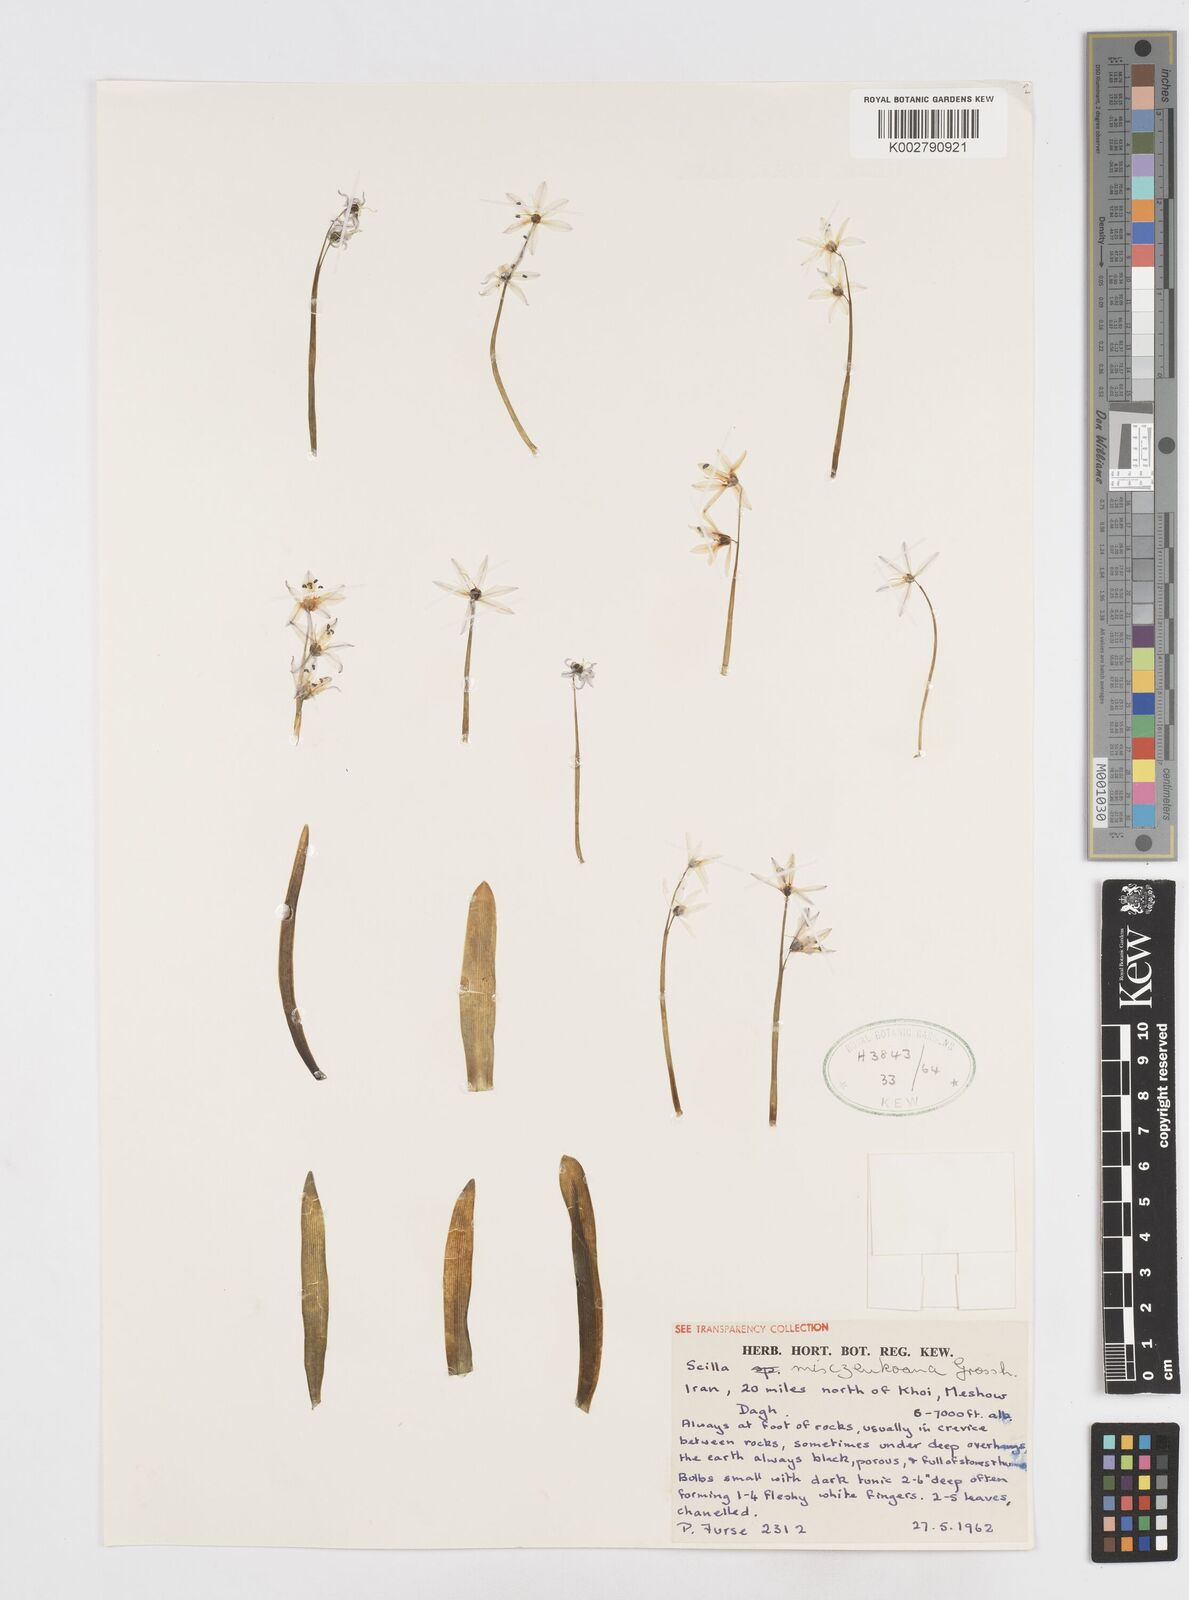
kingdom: Plantae
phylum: Tracheophyta
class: Liliopsida
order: Asparagales
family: Asparagaceae
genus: Scilla
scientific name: Scilla mischtschenkoana
